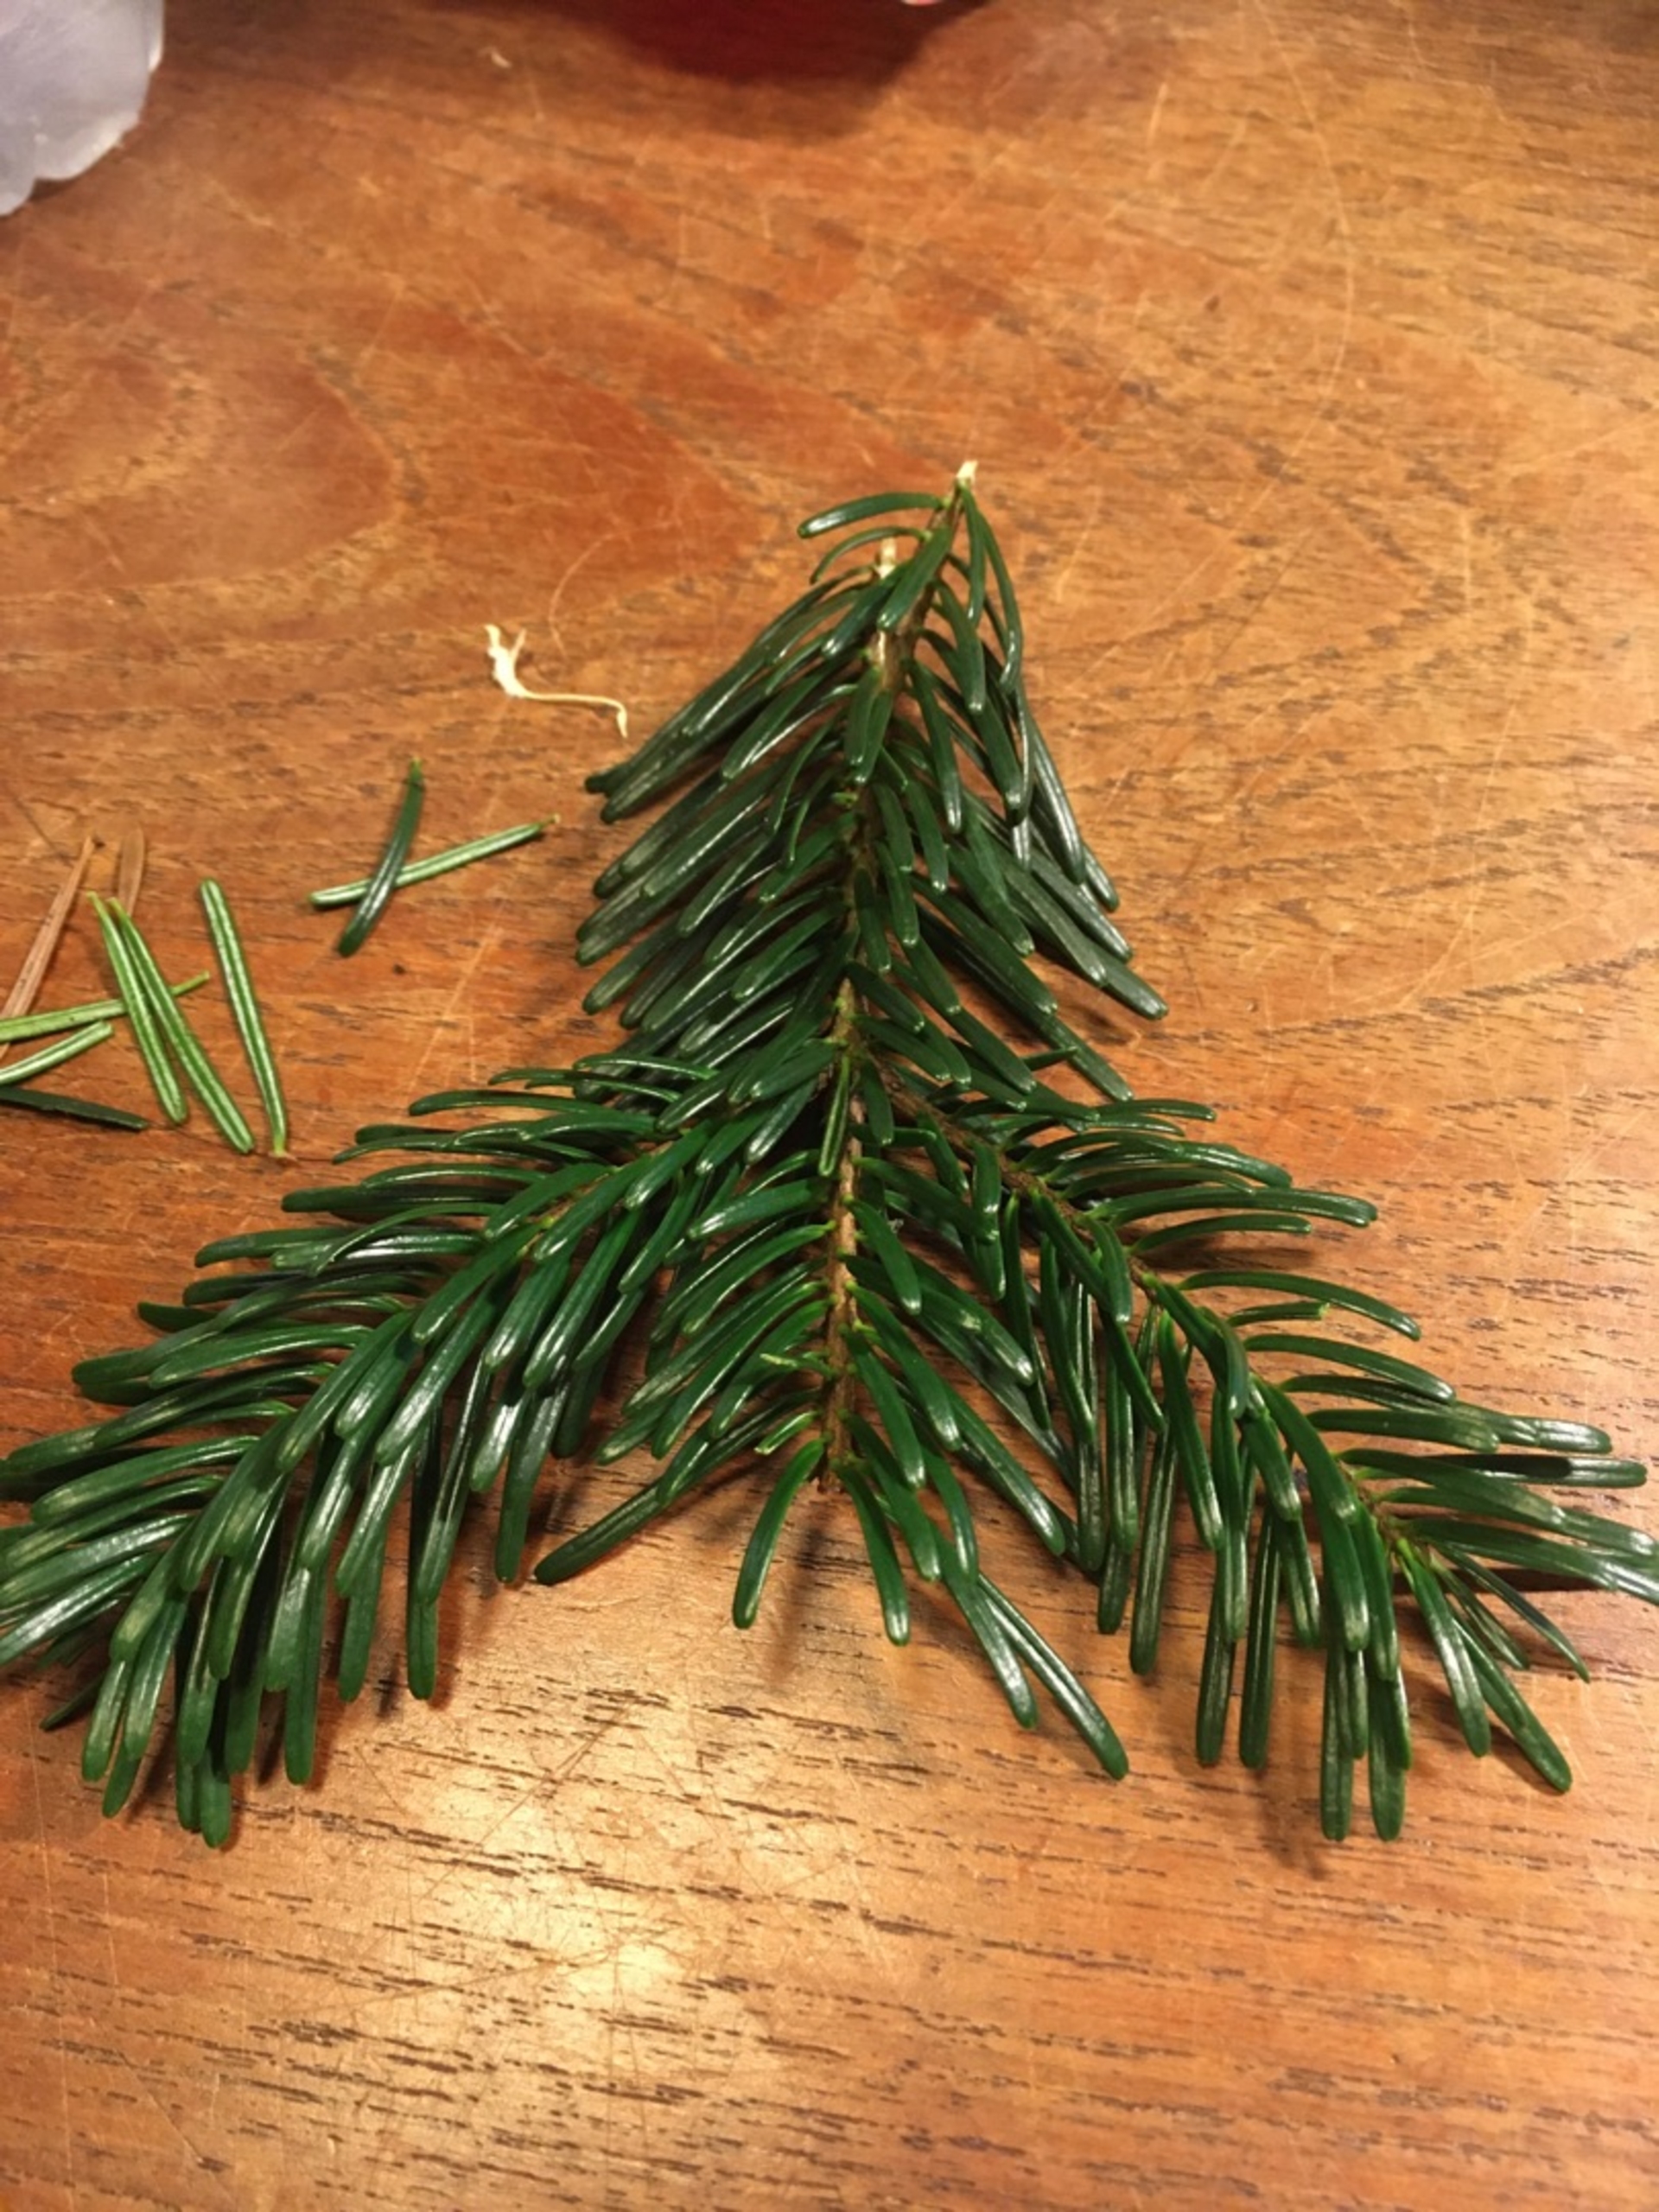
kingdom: Plantae
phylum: Tracheophyta
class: Pinopsida
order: Pinales
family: Pinaceae
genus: Abies
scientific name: Abies nordmanniana
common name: Nordmannsgran
